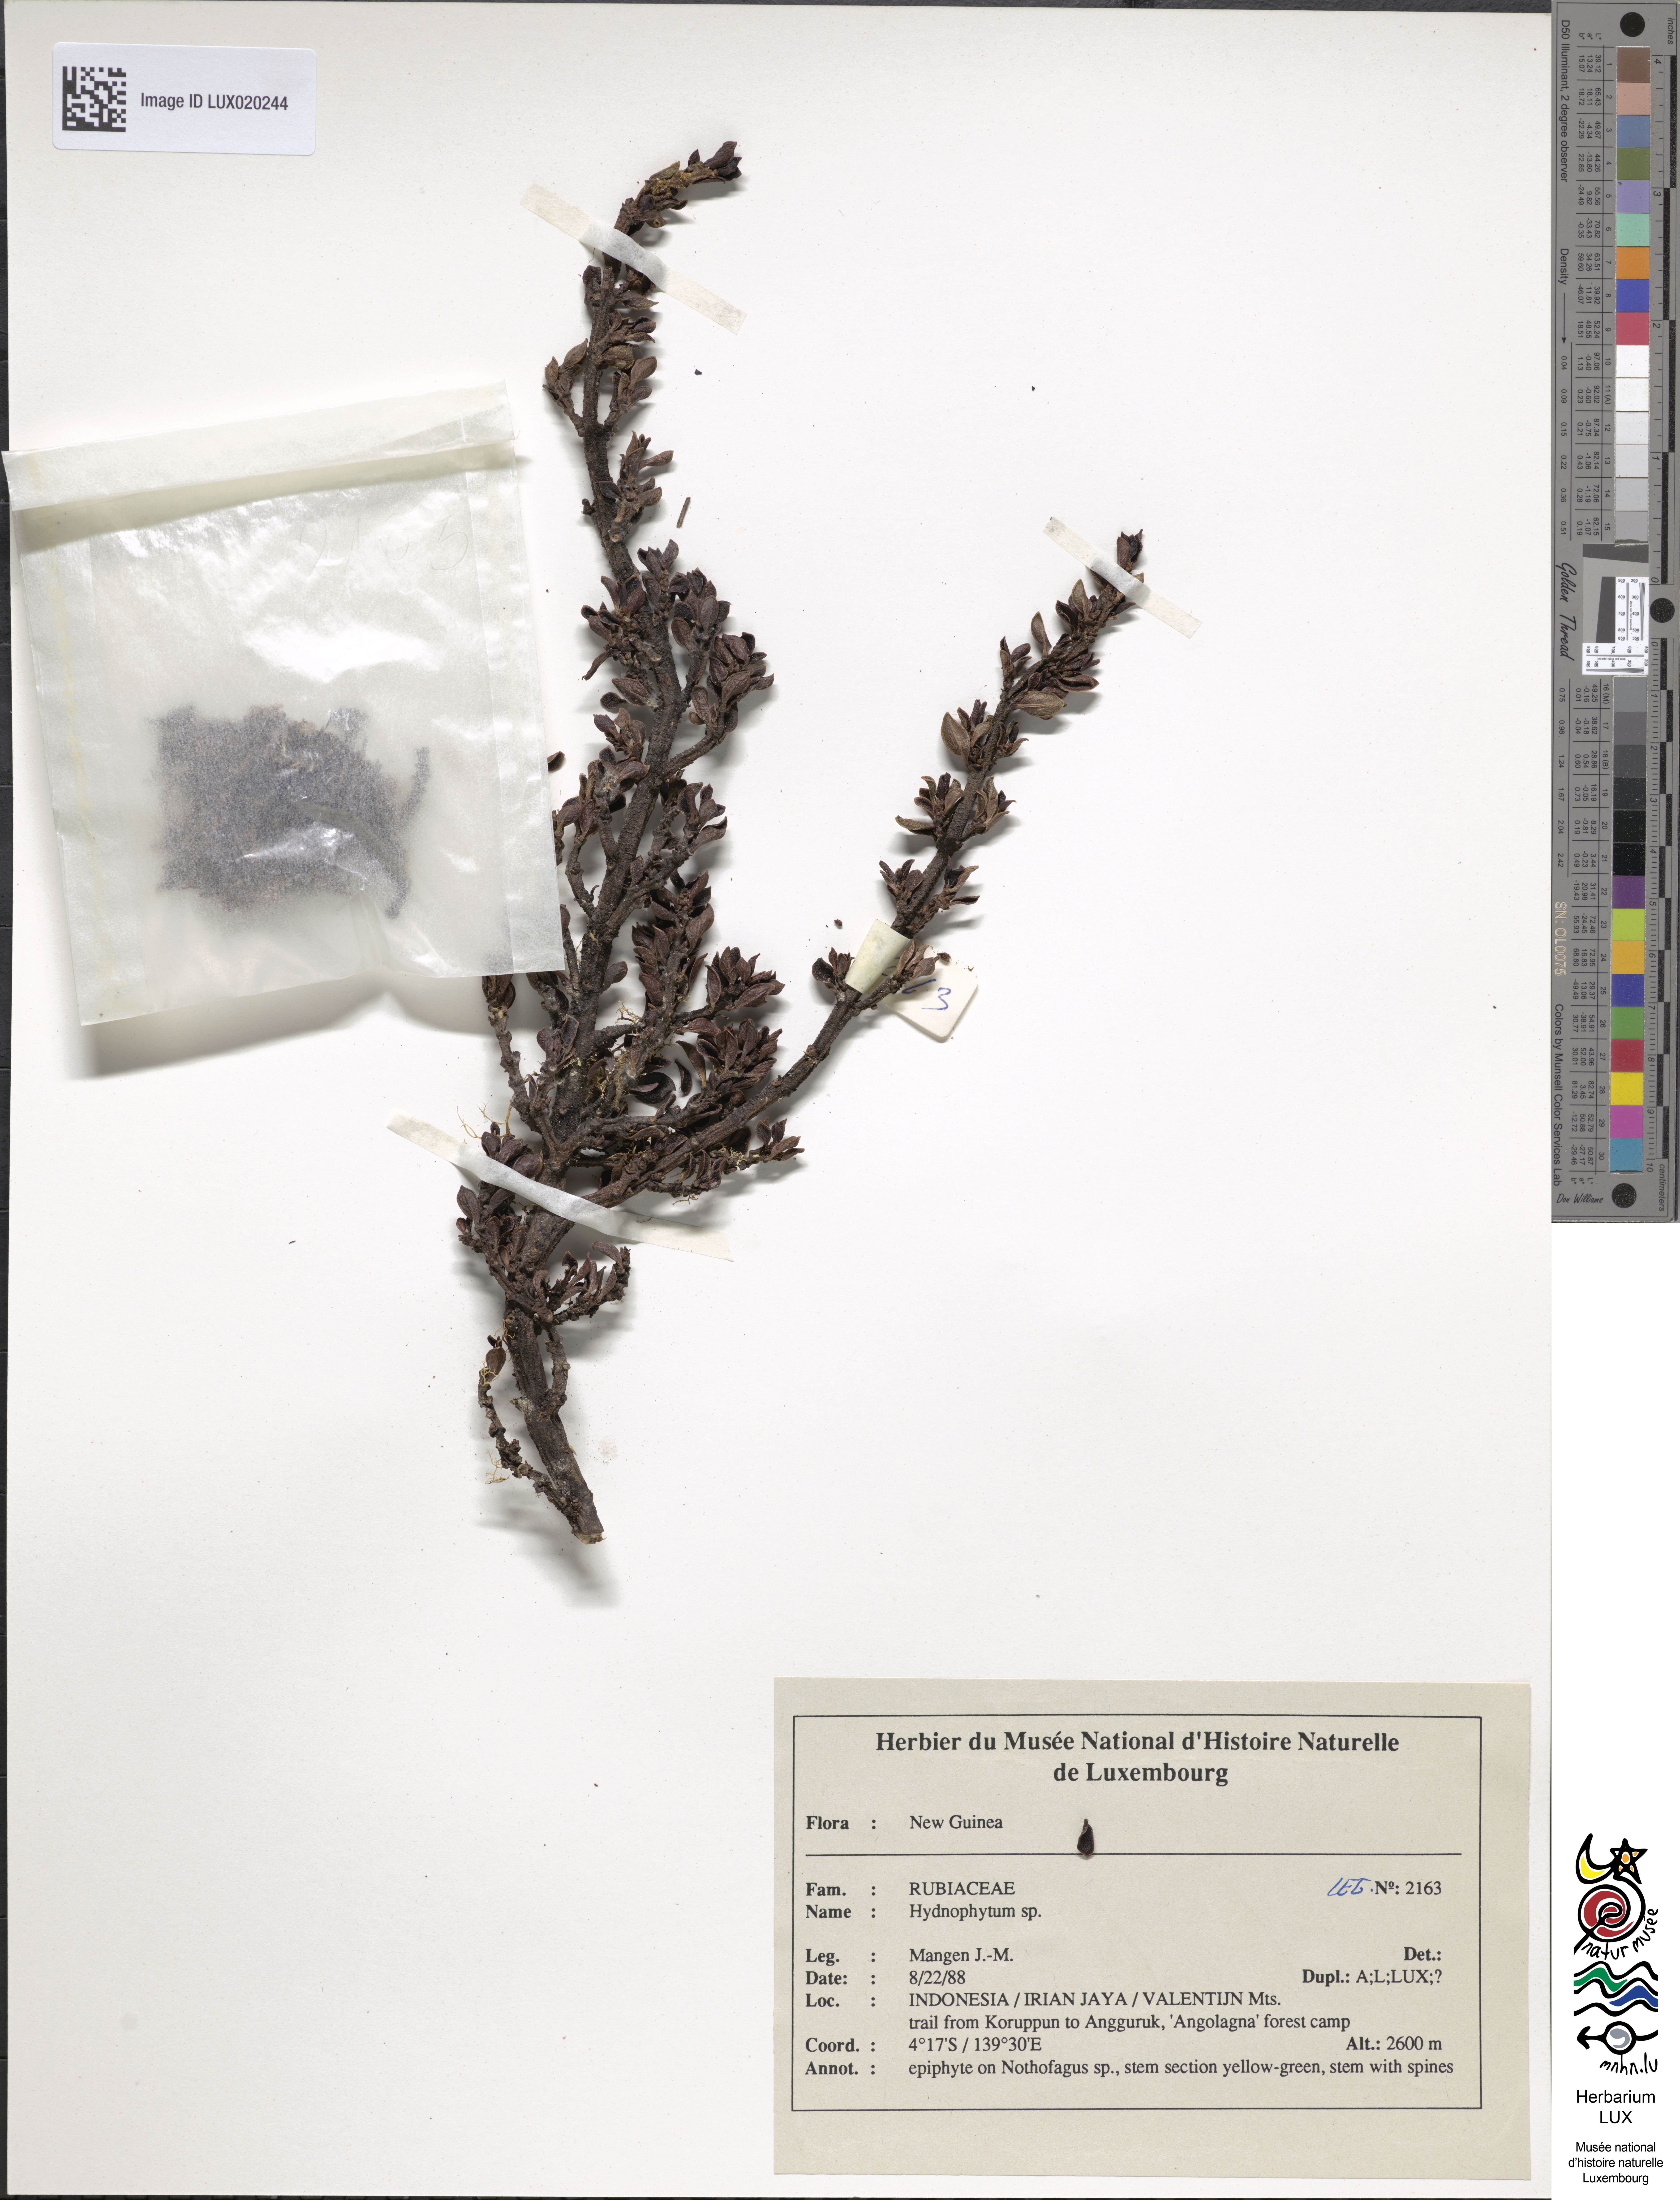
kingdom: Plantae
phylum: Tracheophyta
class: Magnoliopsida
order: Gentianales
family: Rubiaceae
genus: Hydnophytum
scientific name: Hydnophytum
